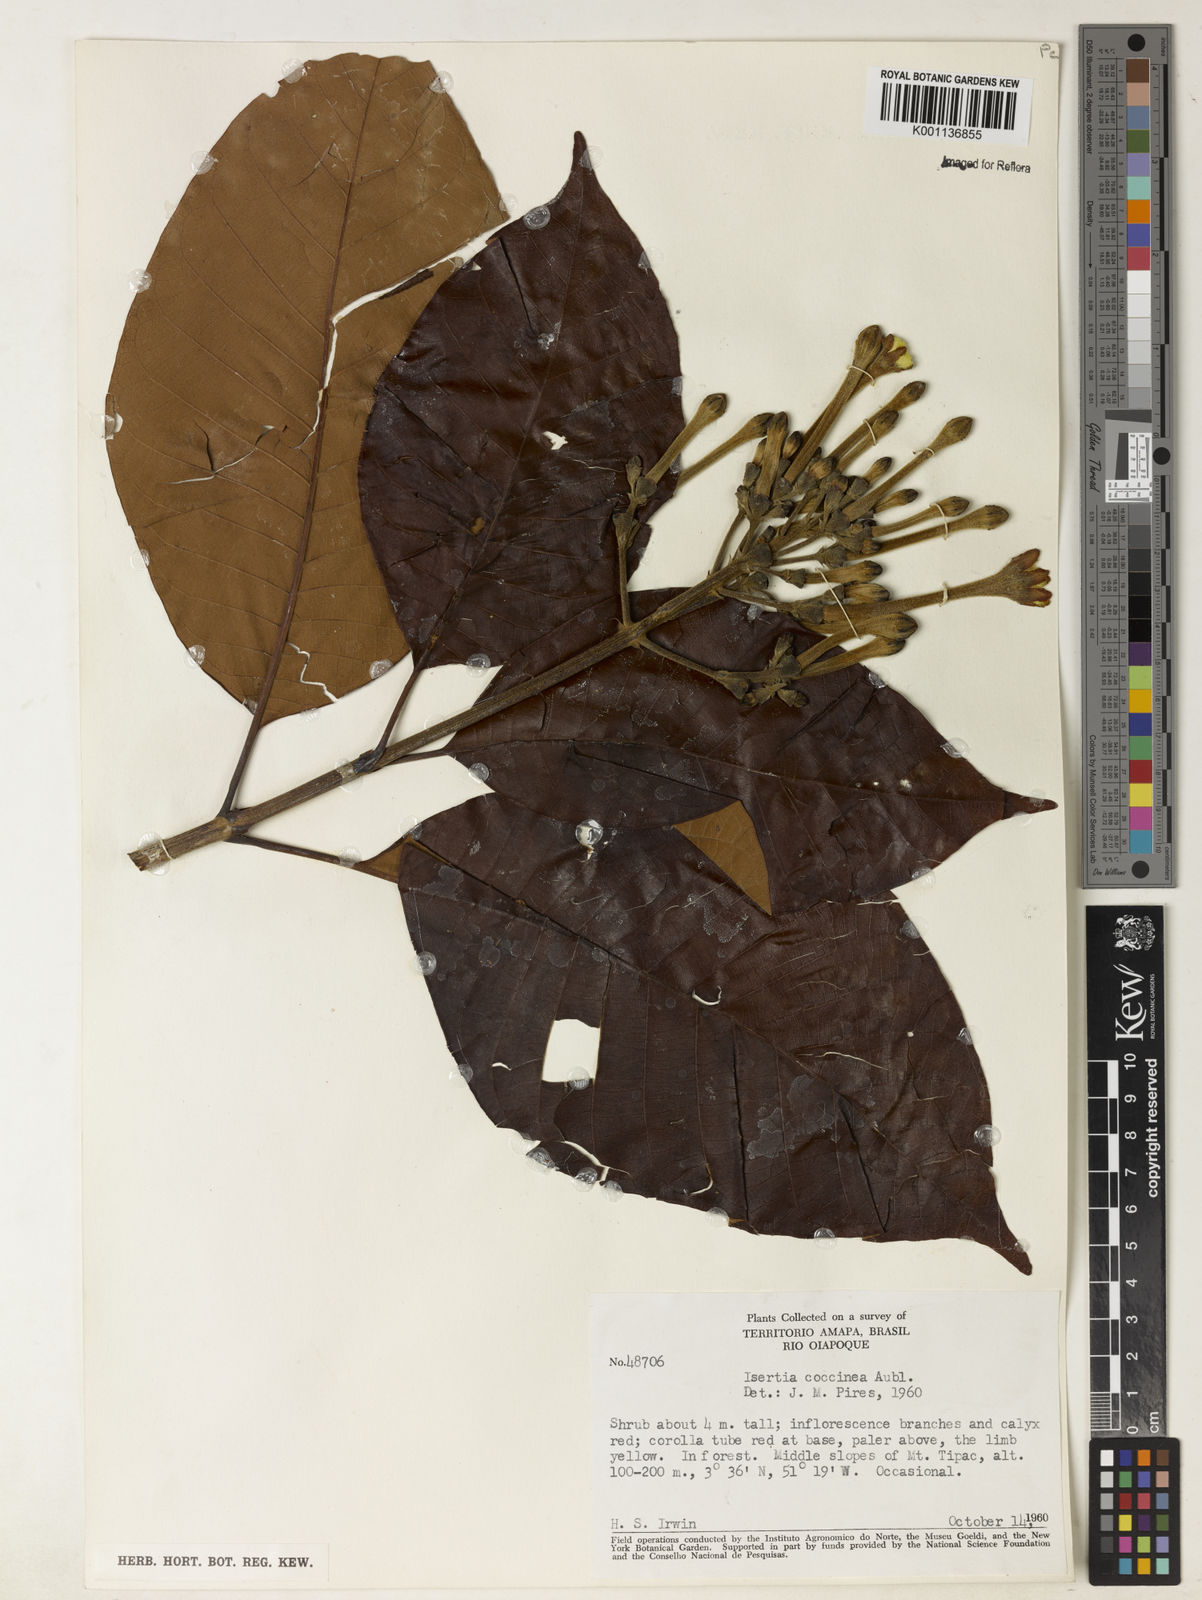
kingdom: Plantae
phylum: Tracheophyta
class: Magnoliopsida
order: Gentianales
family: Rubiaceae
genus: Isertia
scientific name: Isertia coccinea
